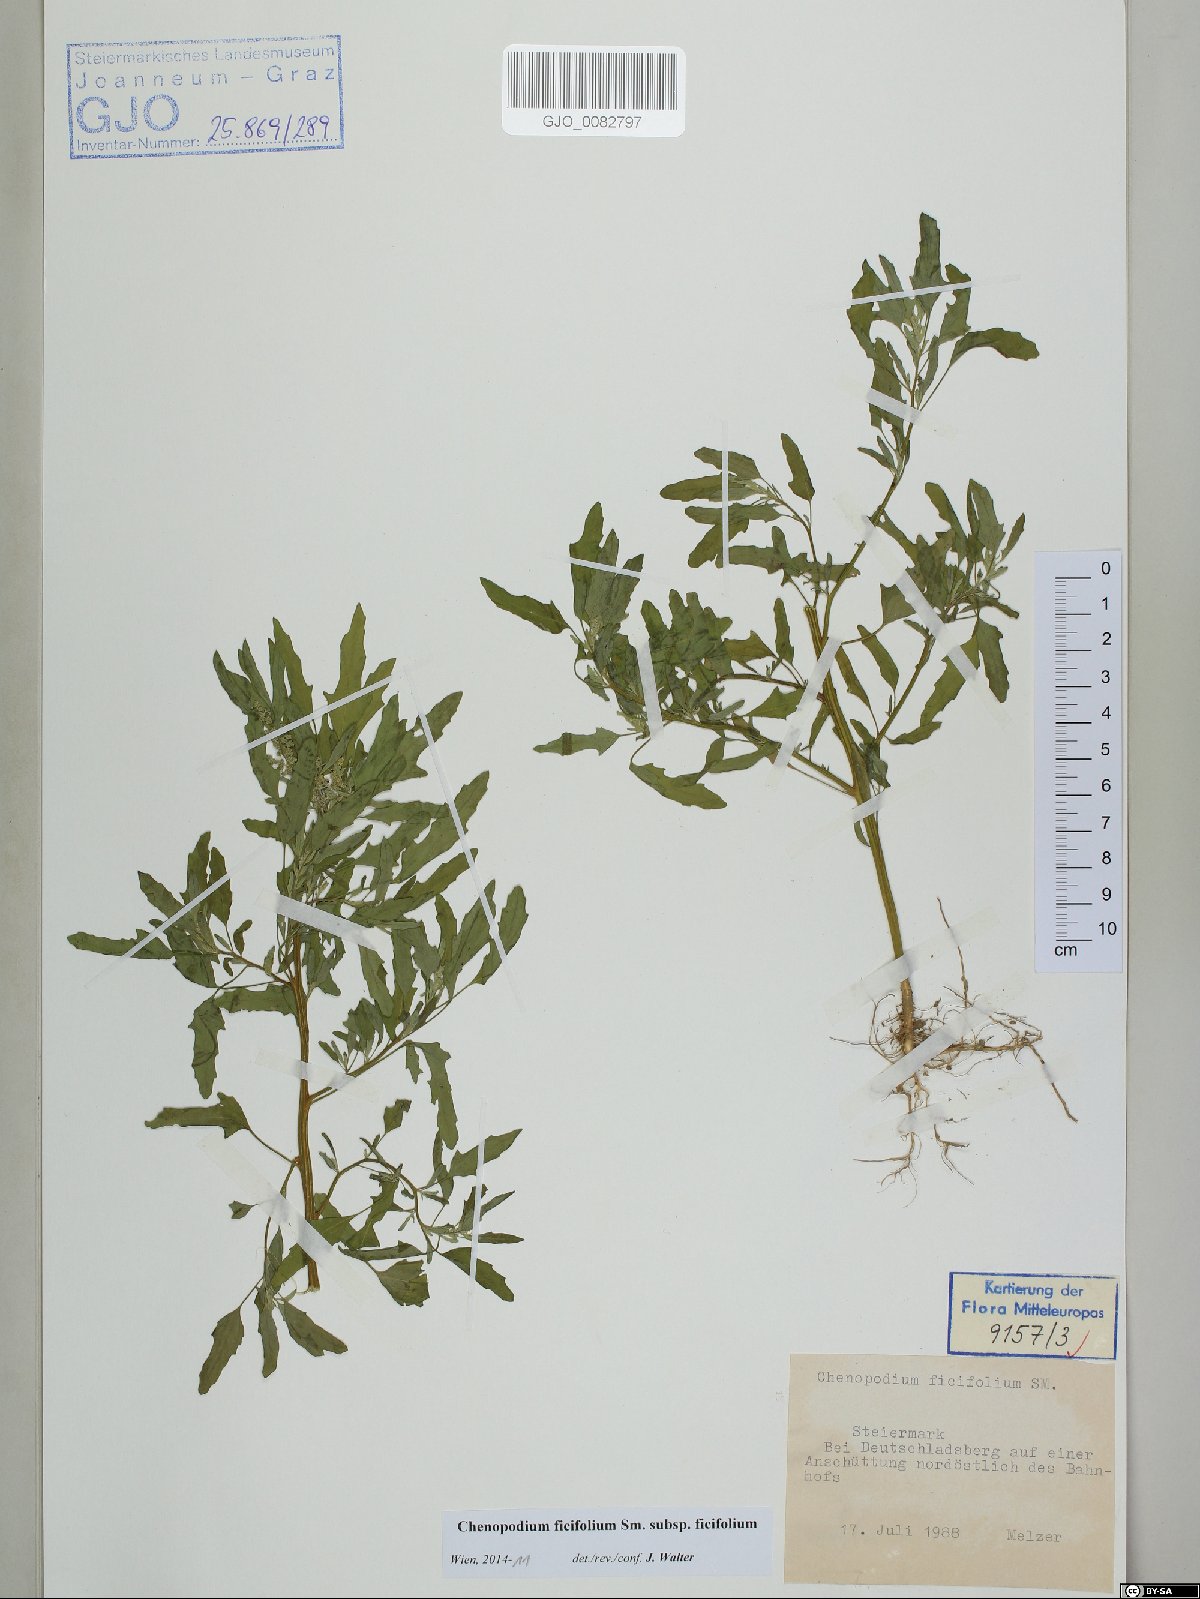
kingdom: Plantae
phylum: Tracheophyta
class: Magnoliopsida
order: Caryophyllales
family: Amaranthaceae
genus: Chenopodium
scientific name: Chenopodium ficifolium
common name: Fig-leaved goosefoot
